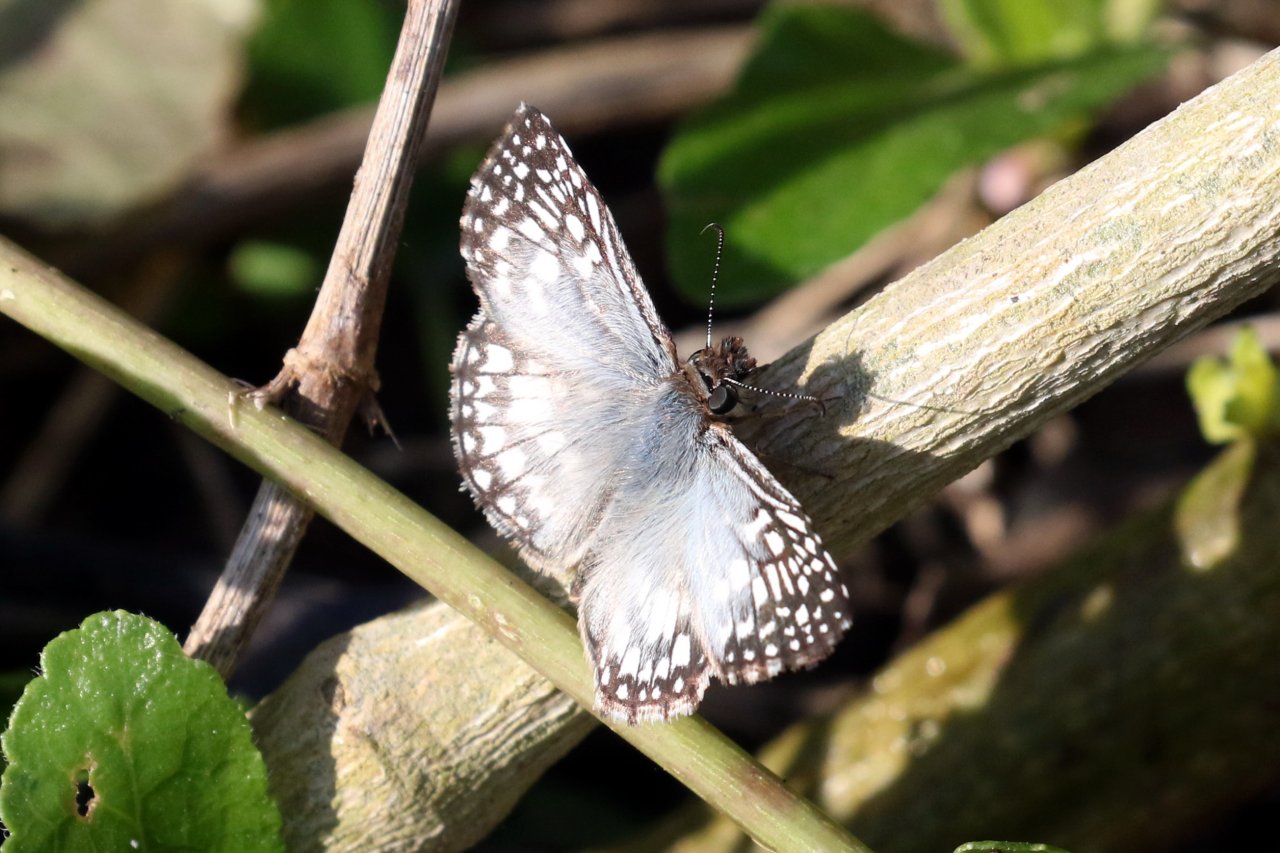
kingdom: Animalia
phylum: Arthropoda
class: Insecta
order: Lepidoptera
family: Hesperiidae
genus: Pyrgus
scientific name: Pyrgus oileus
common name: Tropical Checkered-Skipper
